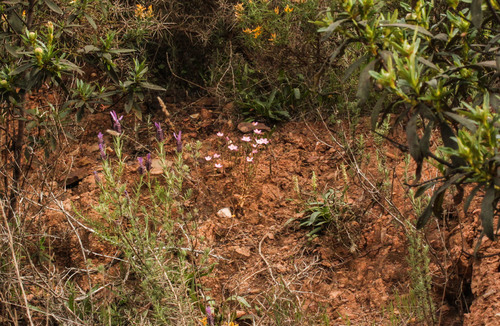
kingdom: Plantae
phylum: Tracheophyta
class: Magnoliopsida
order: Gentianales
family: Gentianaceae
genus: Centaurium
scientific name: Centaurium erythraea
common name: Common centaury
